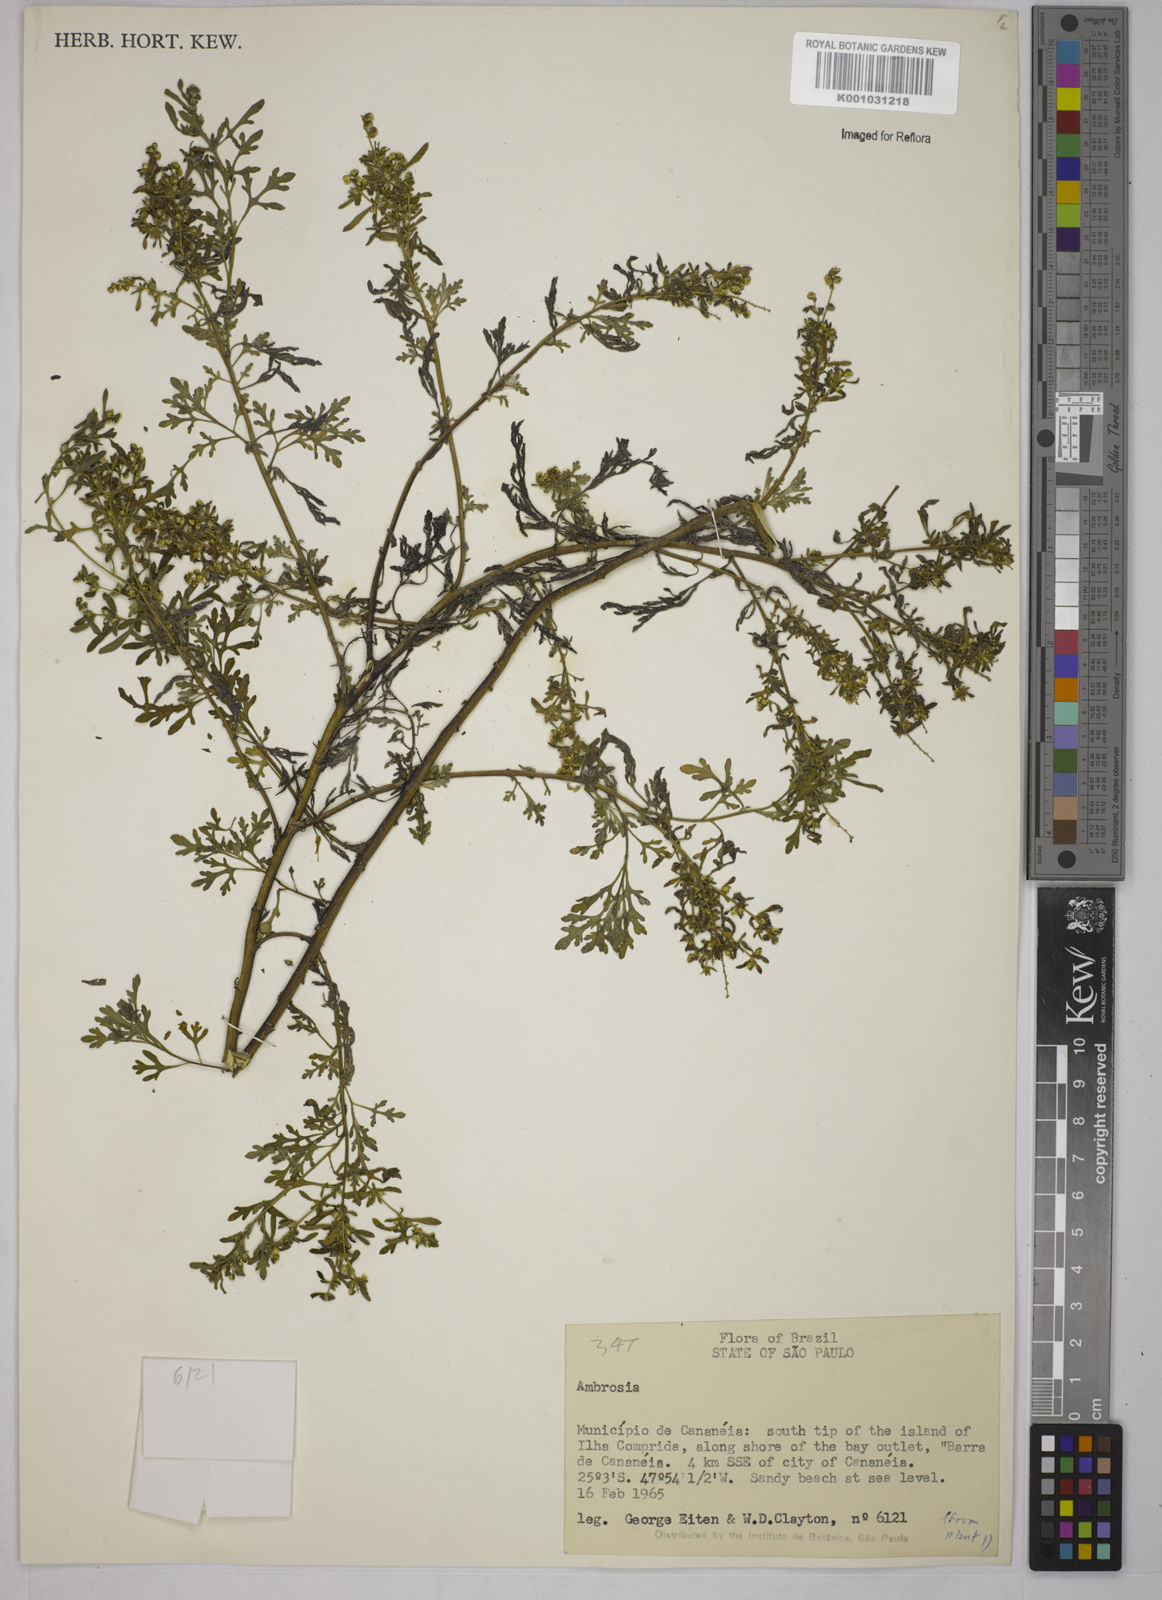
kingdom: Plantae
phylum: Tracheophyta
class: Magnoliopsida
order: Asterales
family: Asteraceae
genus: Ambrosia
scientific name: Ambrosia
